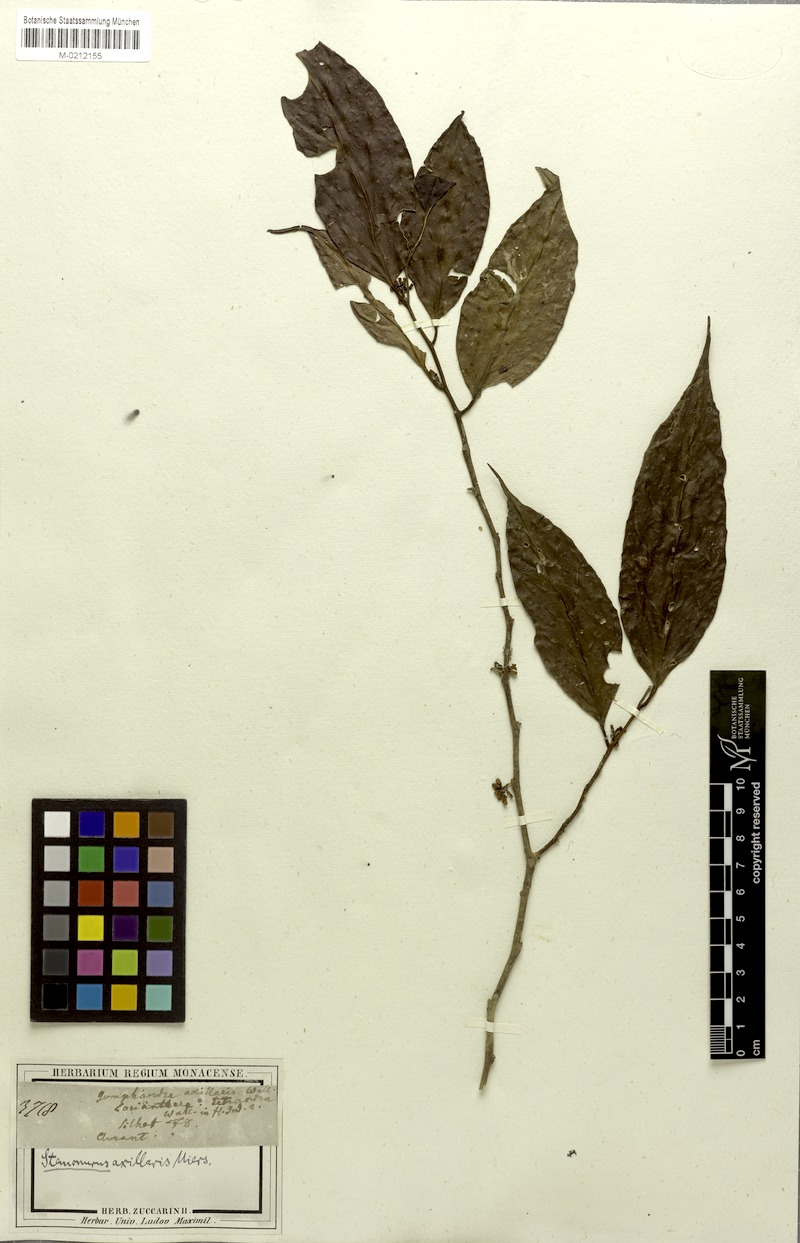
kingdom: Plantae
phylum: Tracheophyta
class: Magnoliopsida
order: Cardiopteridales
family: Stemonuraceae
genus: Gomphandra
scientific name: Gomphandra tetrandra
